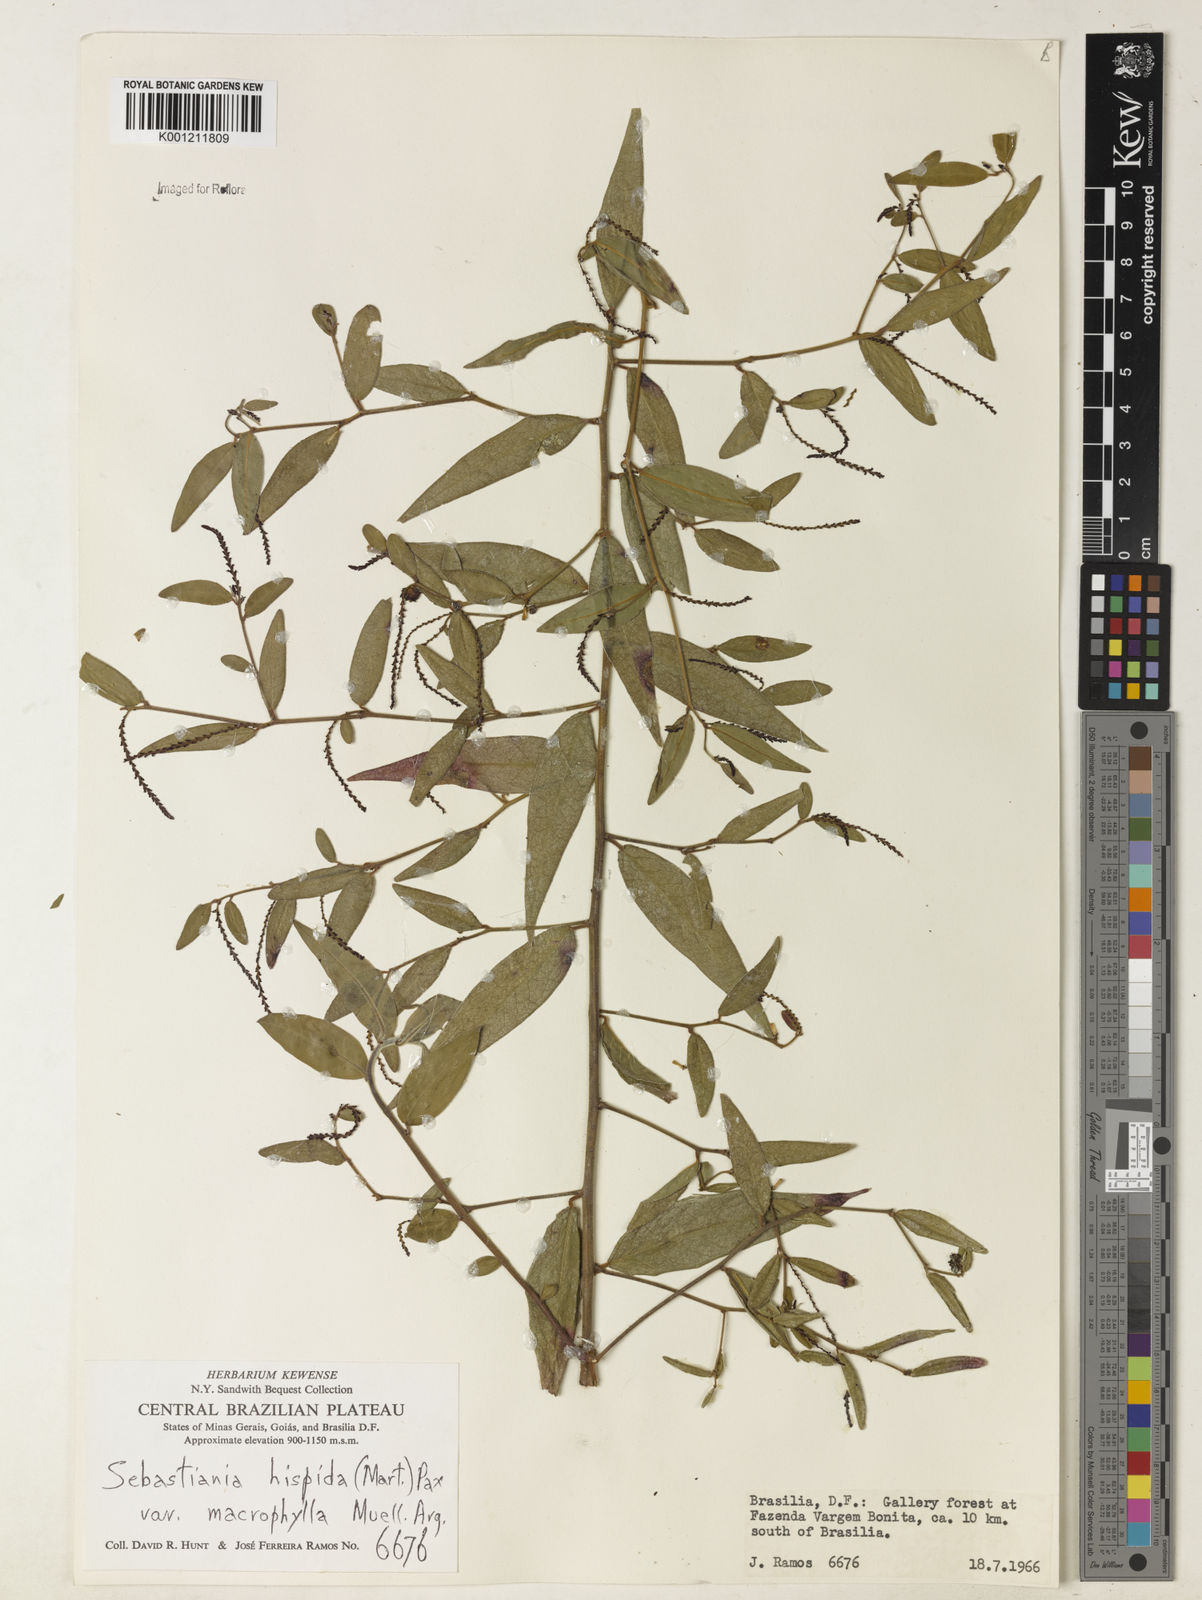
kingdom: Plantae
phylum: Tracheophyta
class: Magnoliopsida
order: Malpighiales
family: Euphorbiaceae
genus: Microstachys
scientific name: Microstachys hispida
